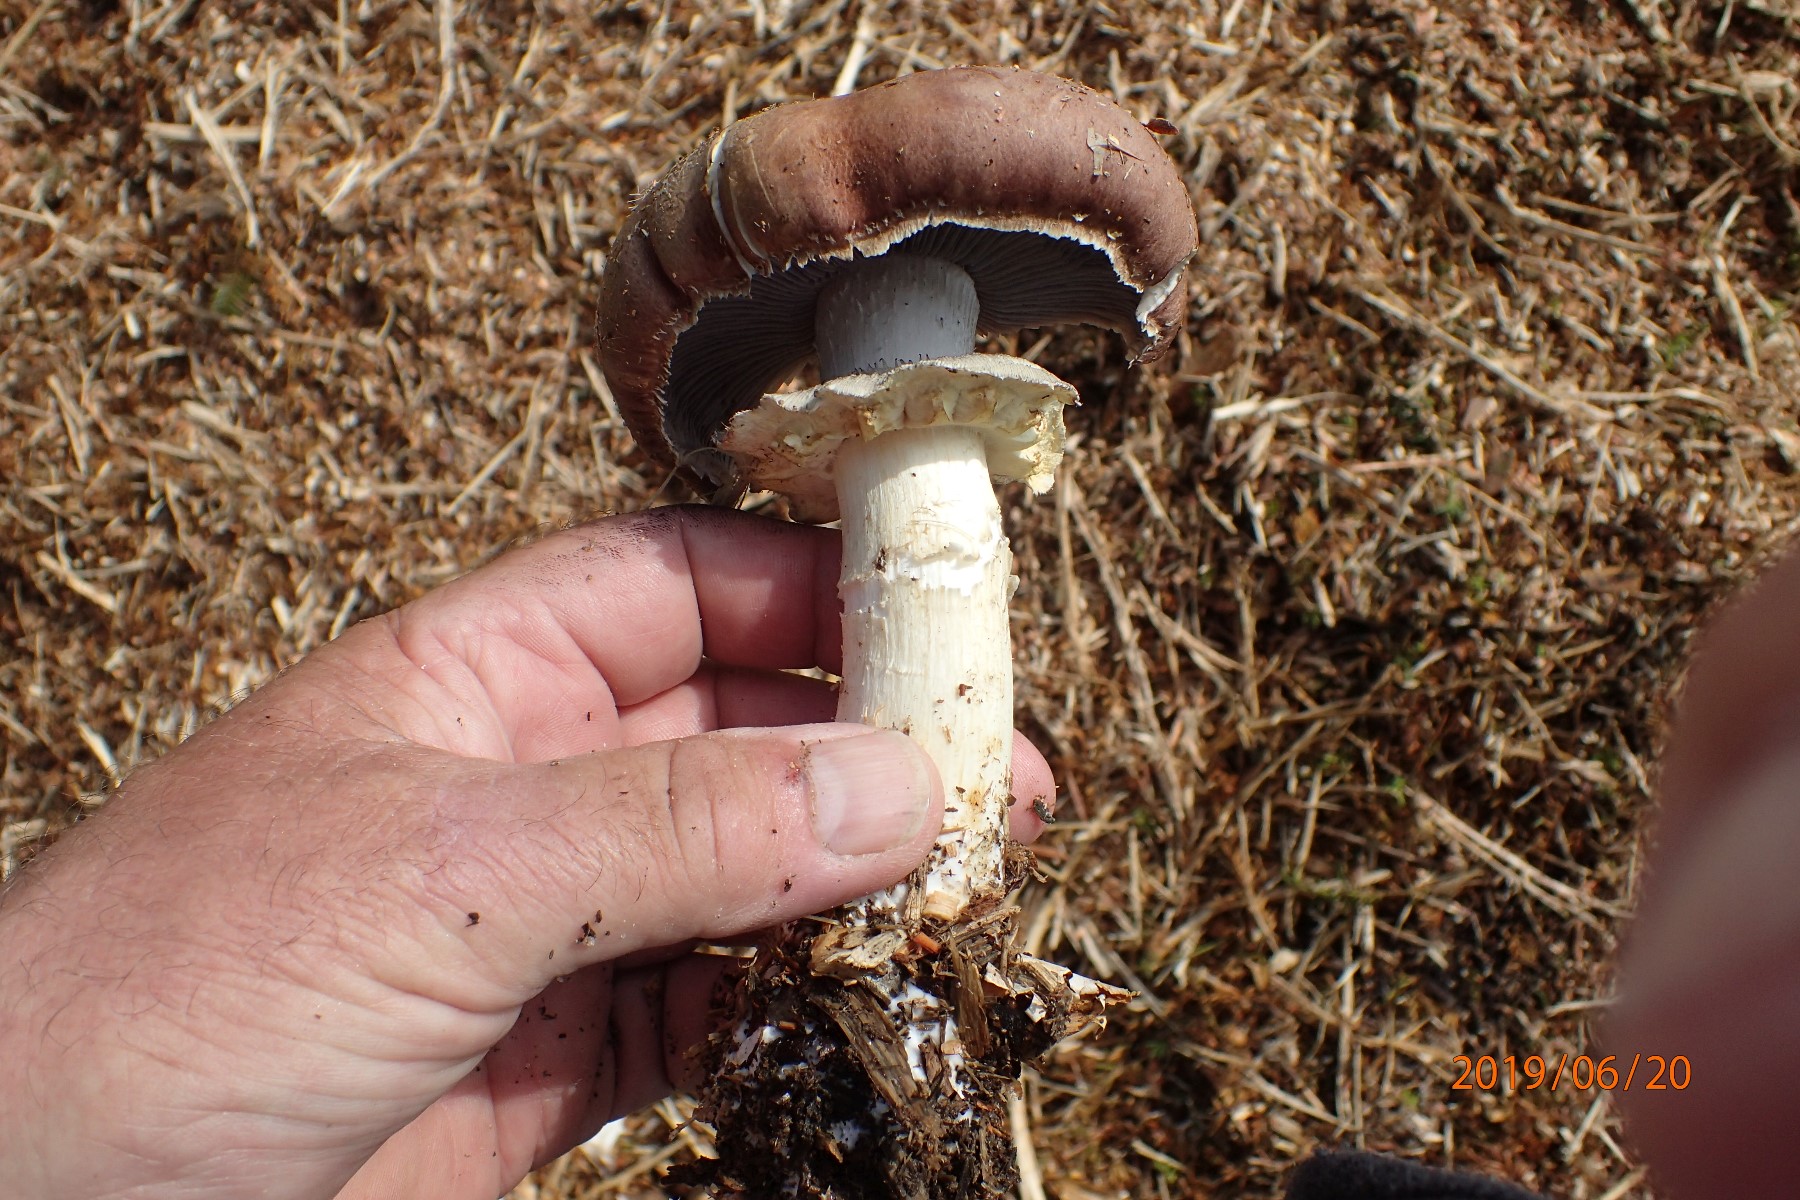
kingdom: Fungi
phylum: Basidiomycota
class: Agaricomycetes
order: Agaricales
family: Strophariaceae
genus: Stropharia
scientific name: Stropharia rugosoannulata
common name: rødbrun bredblad
